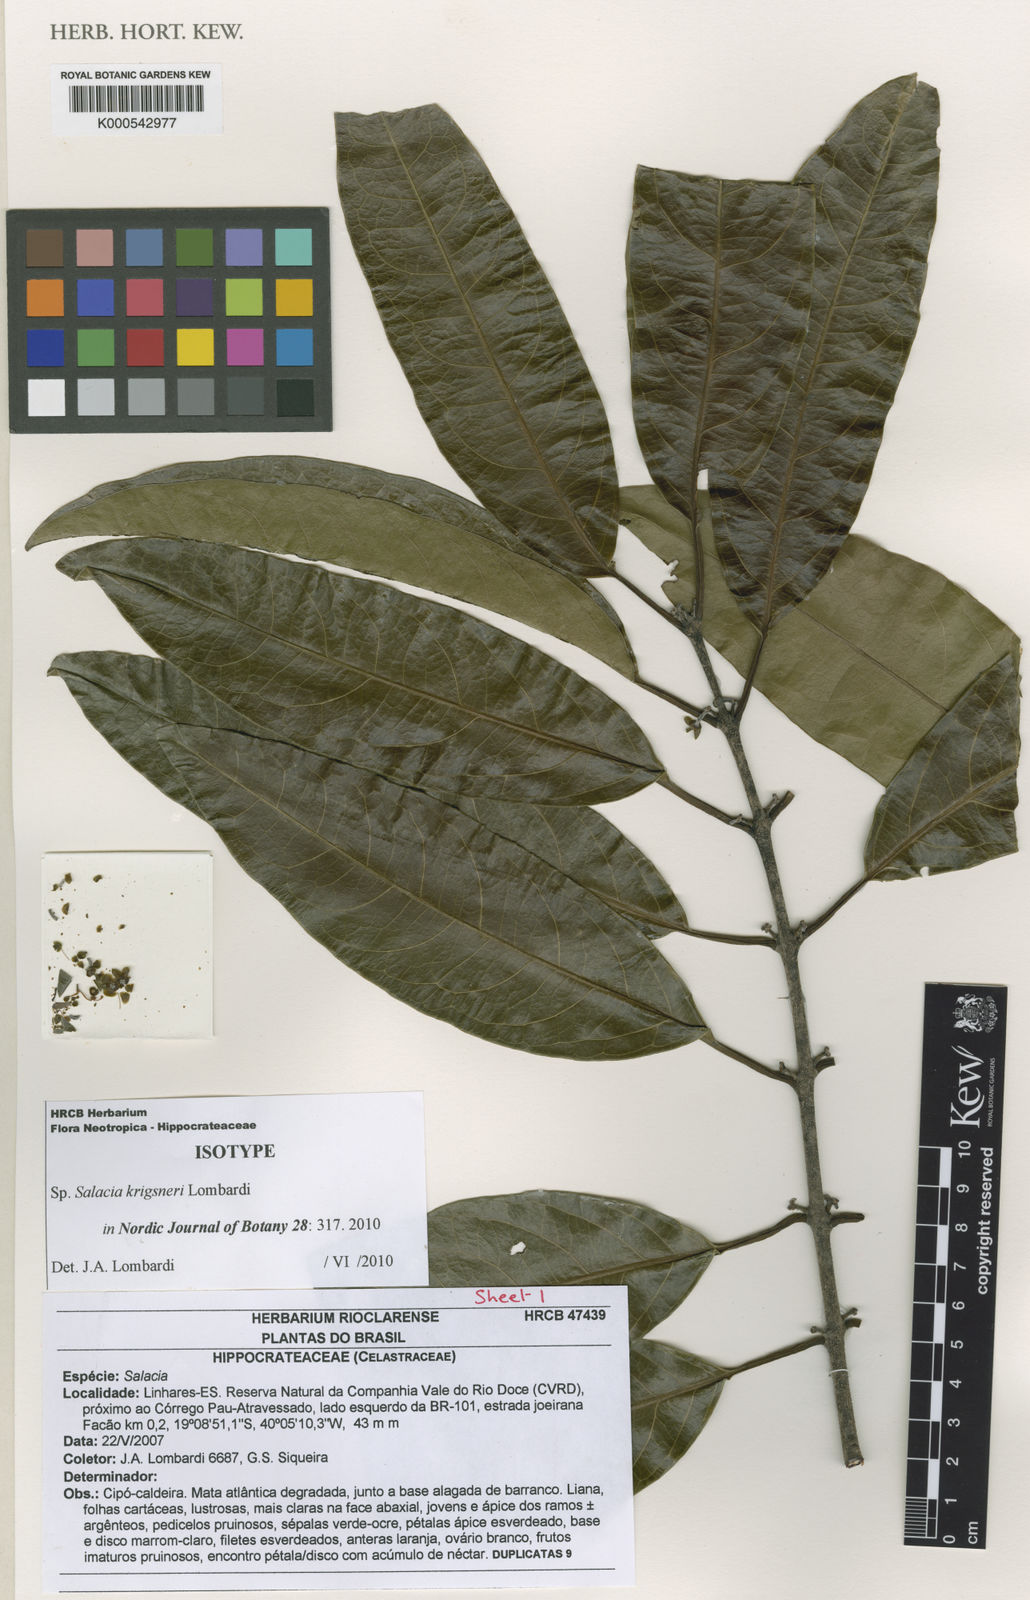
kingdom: Plantae
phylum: Tracheophyta
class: Magnoliopsida
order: Celastrales
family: Celastraceae
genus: Salacia
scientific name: Salacia krigsneri
